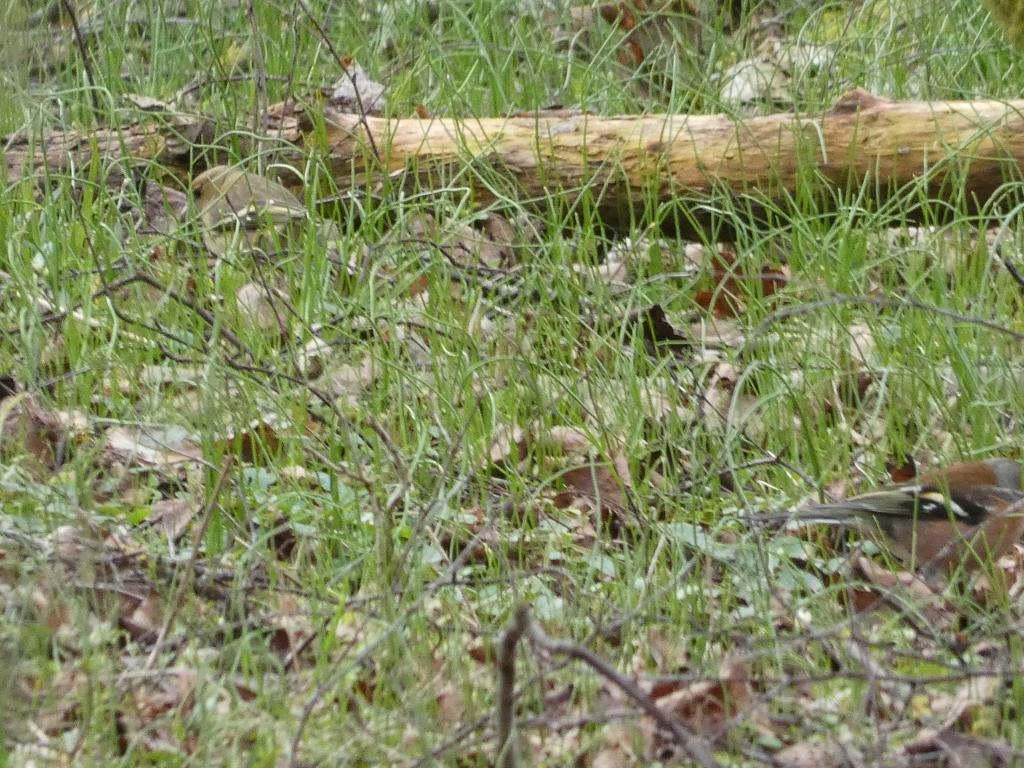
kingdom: Animalia
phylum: Chordata
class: Aves
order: Passeriformes
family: Fringillidae
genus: Fringilla
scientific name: Fringilla coelebs
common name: Bogfinke
